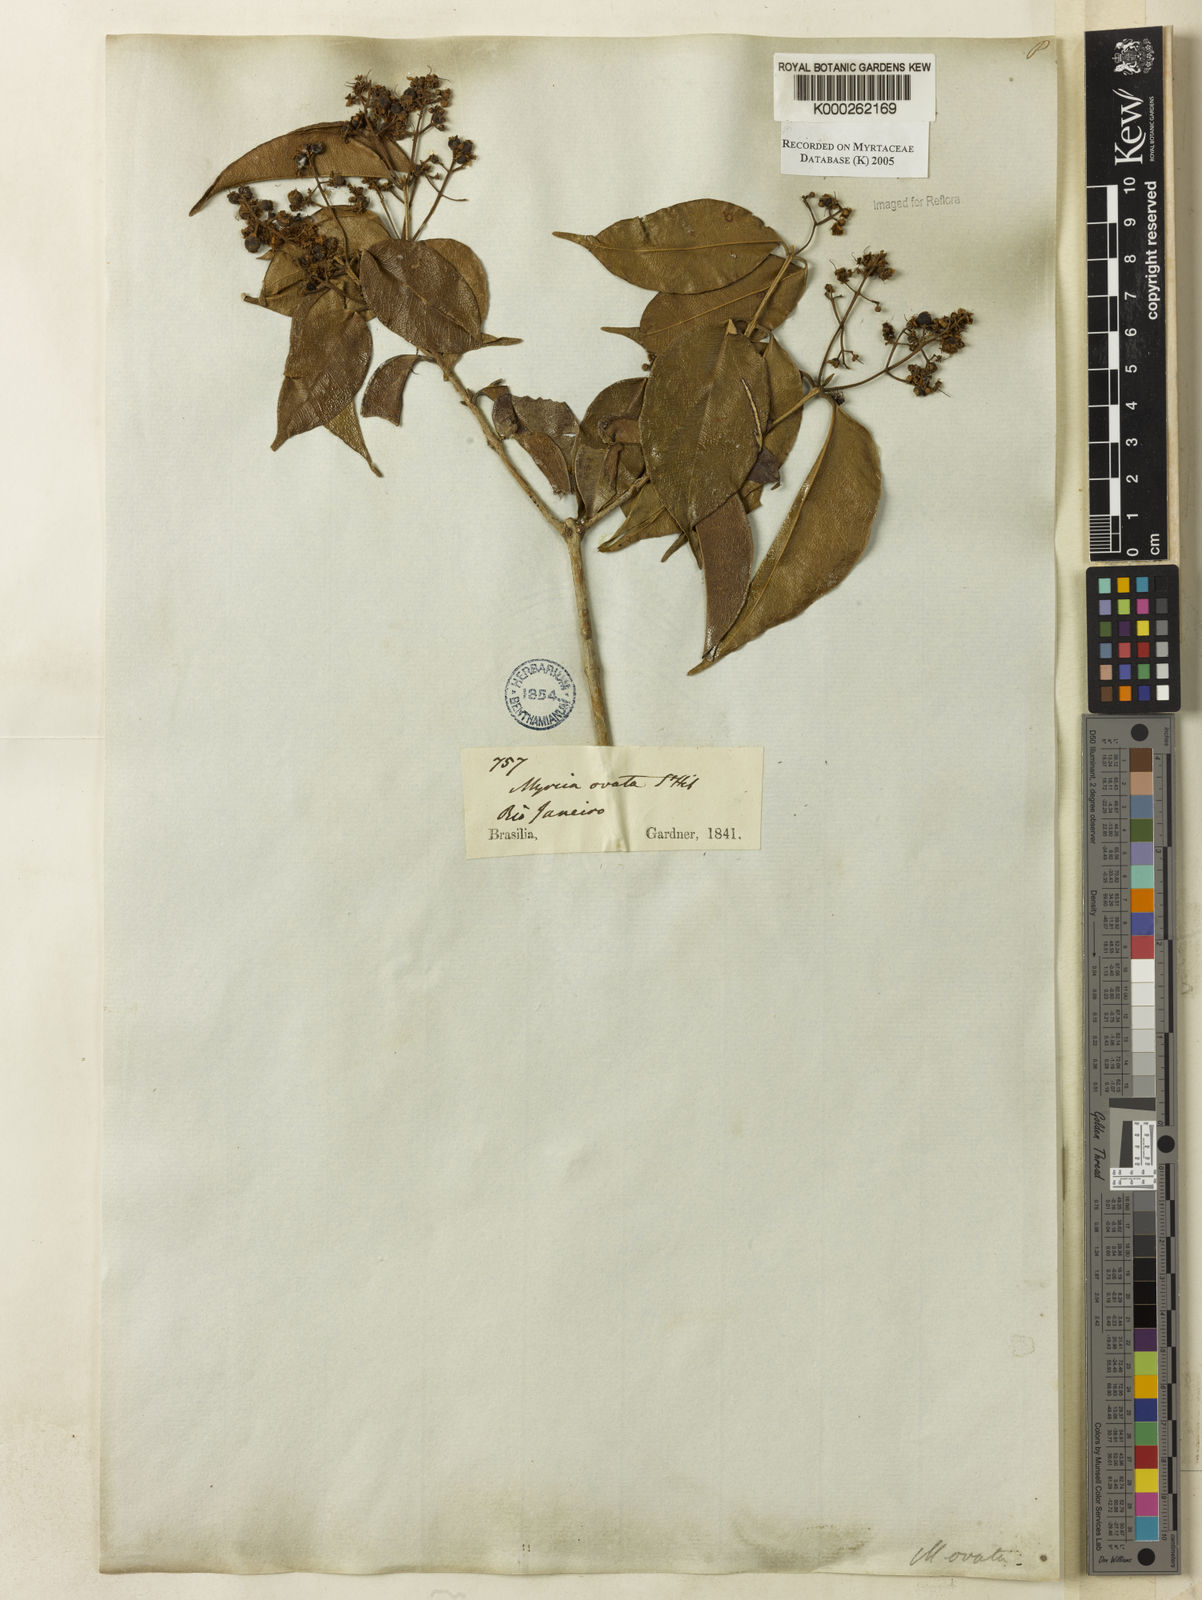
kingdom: Plantae
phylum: Tracheophyta
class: Magnoliopsida
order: Myrtales
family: Myrtaceae
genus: Myrcia
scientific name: Myrcia ovata
